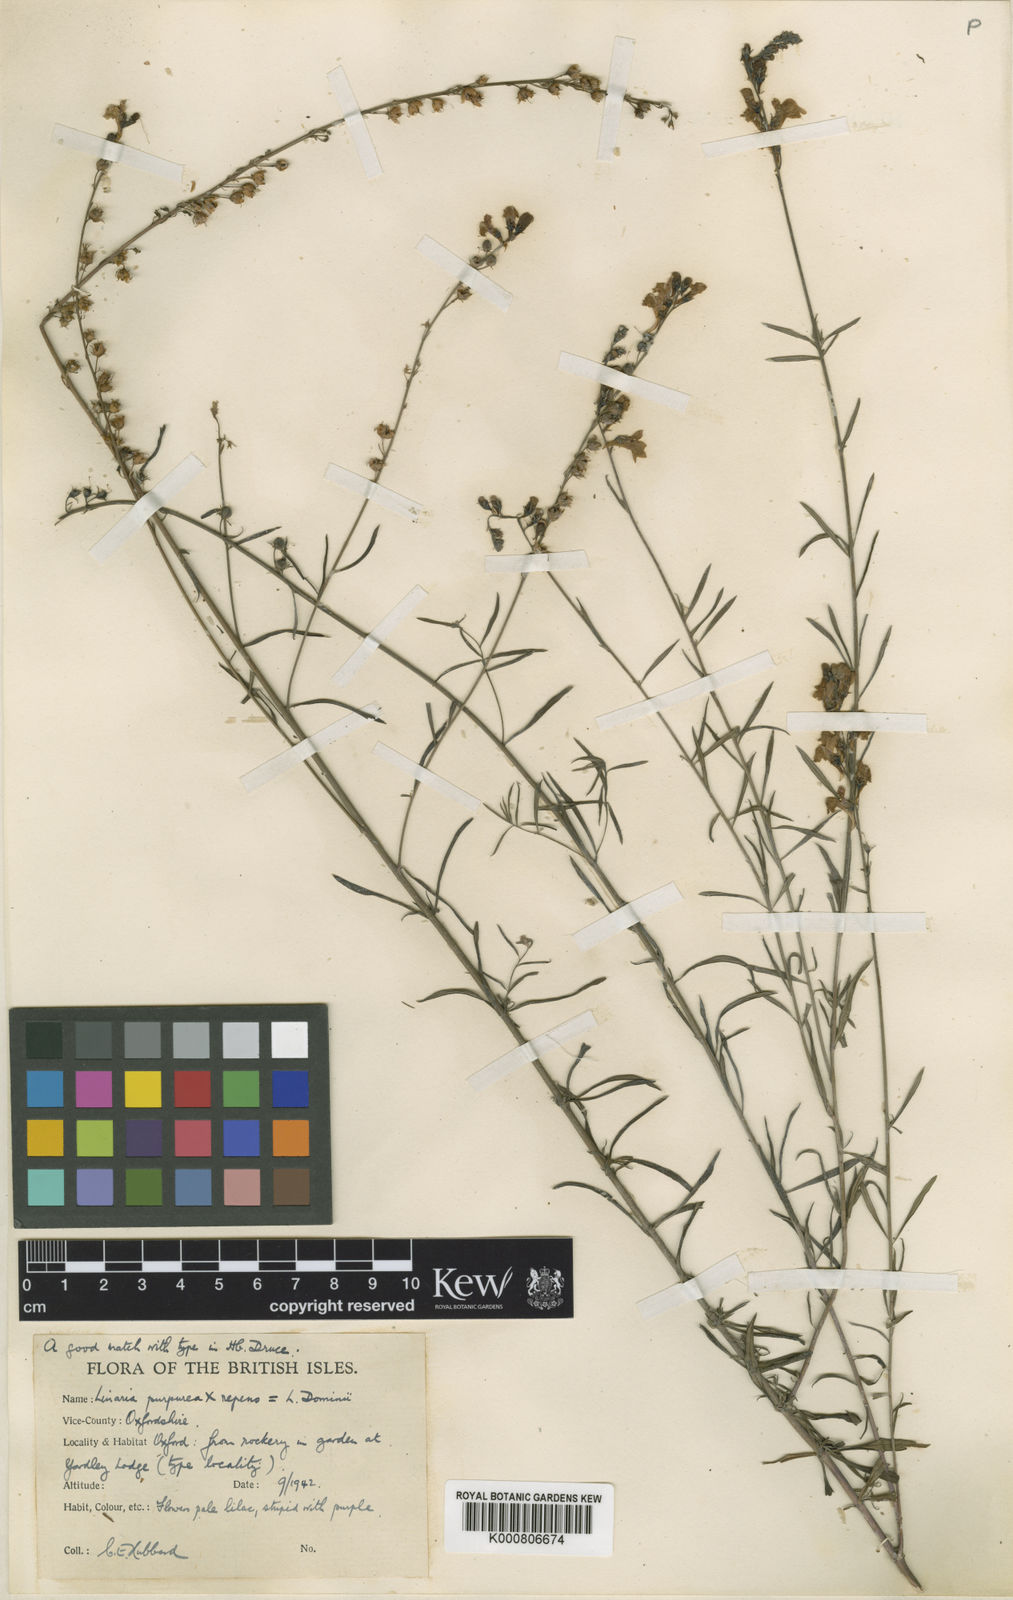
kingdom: Plantae
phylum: Tracheophyta
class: Magnoliopsida
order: Lamiales
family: Plantaginaceae
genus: Linaria
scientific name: Linaria
